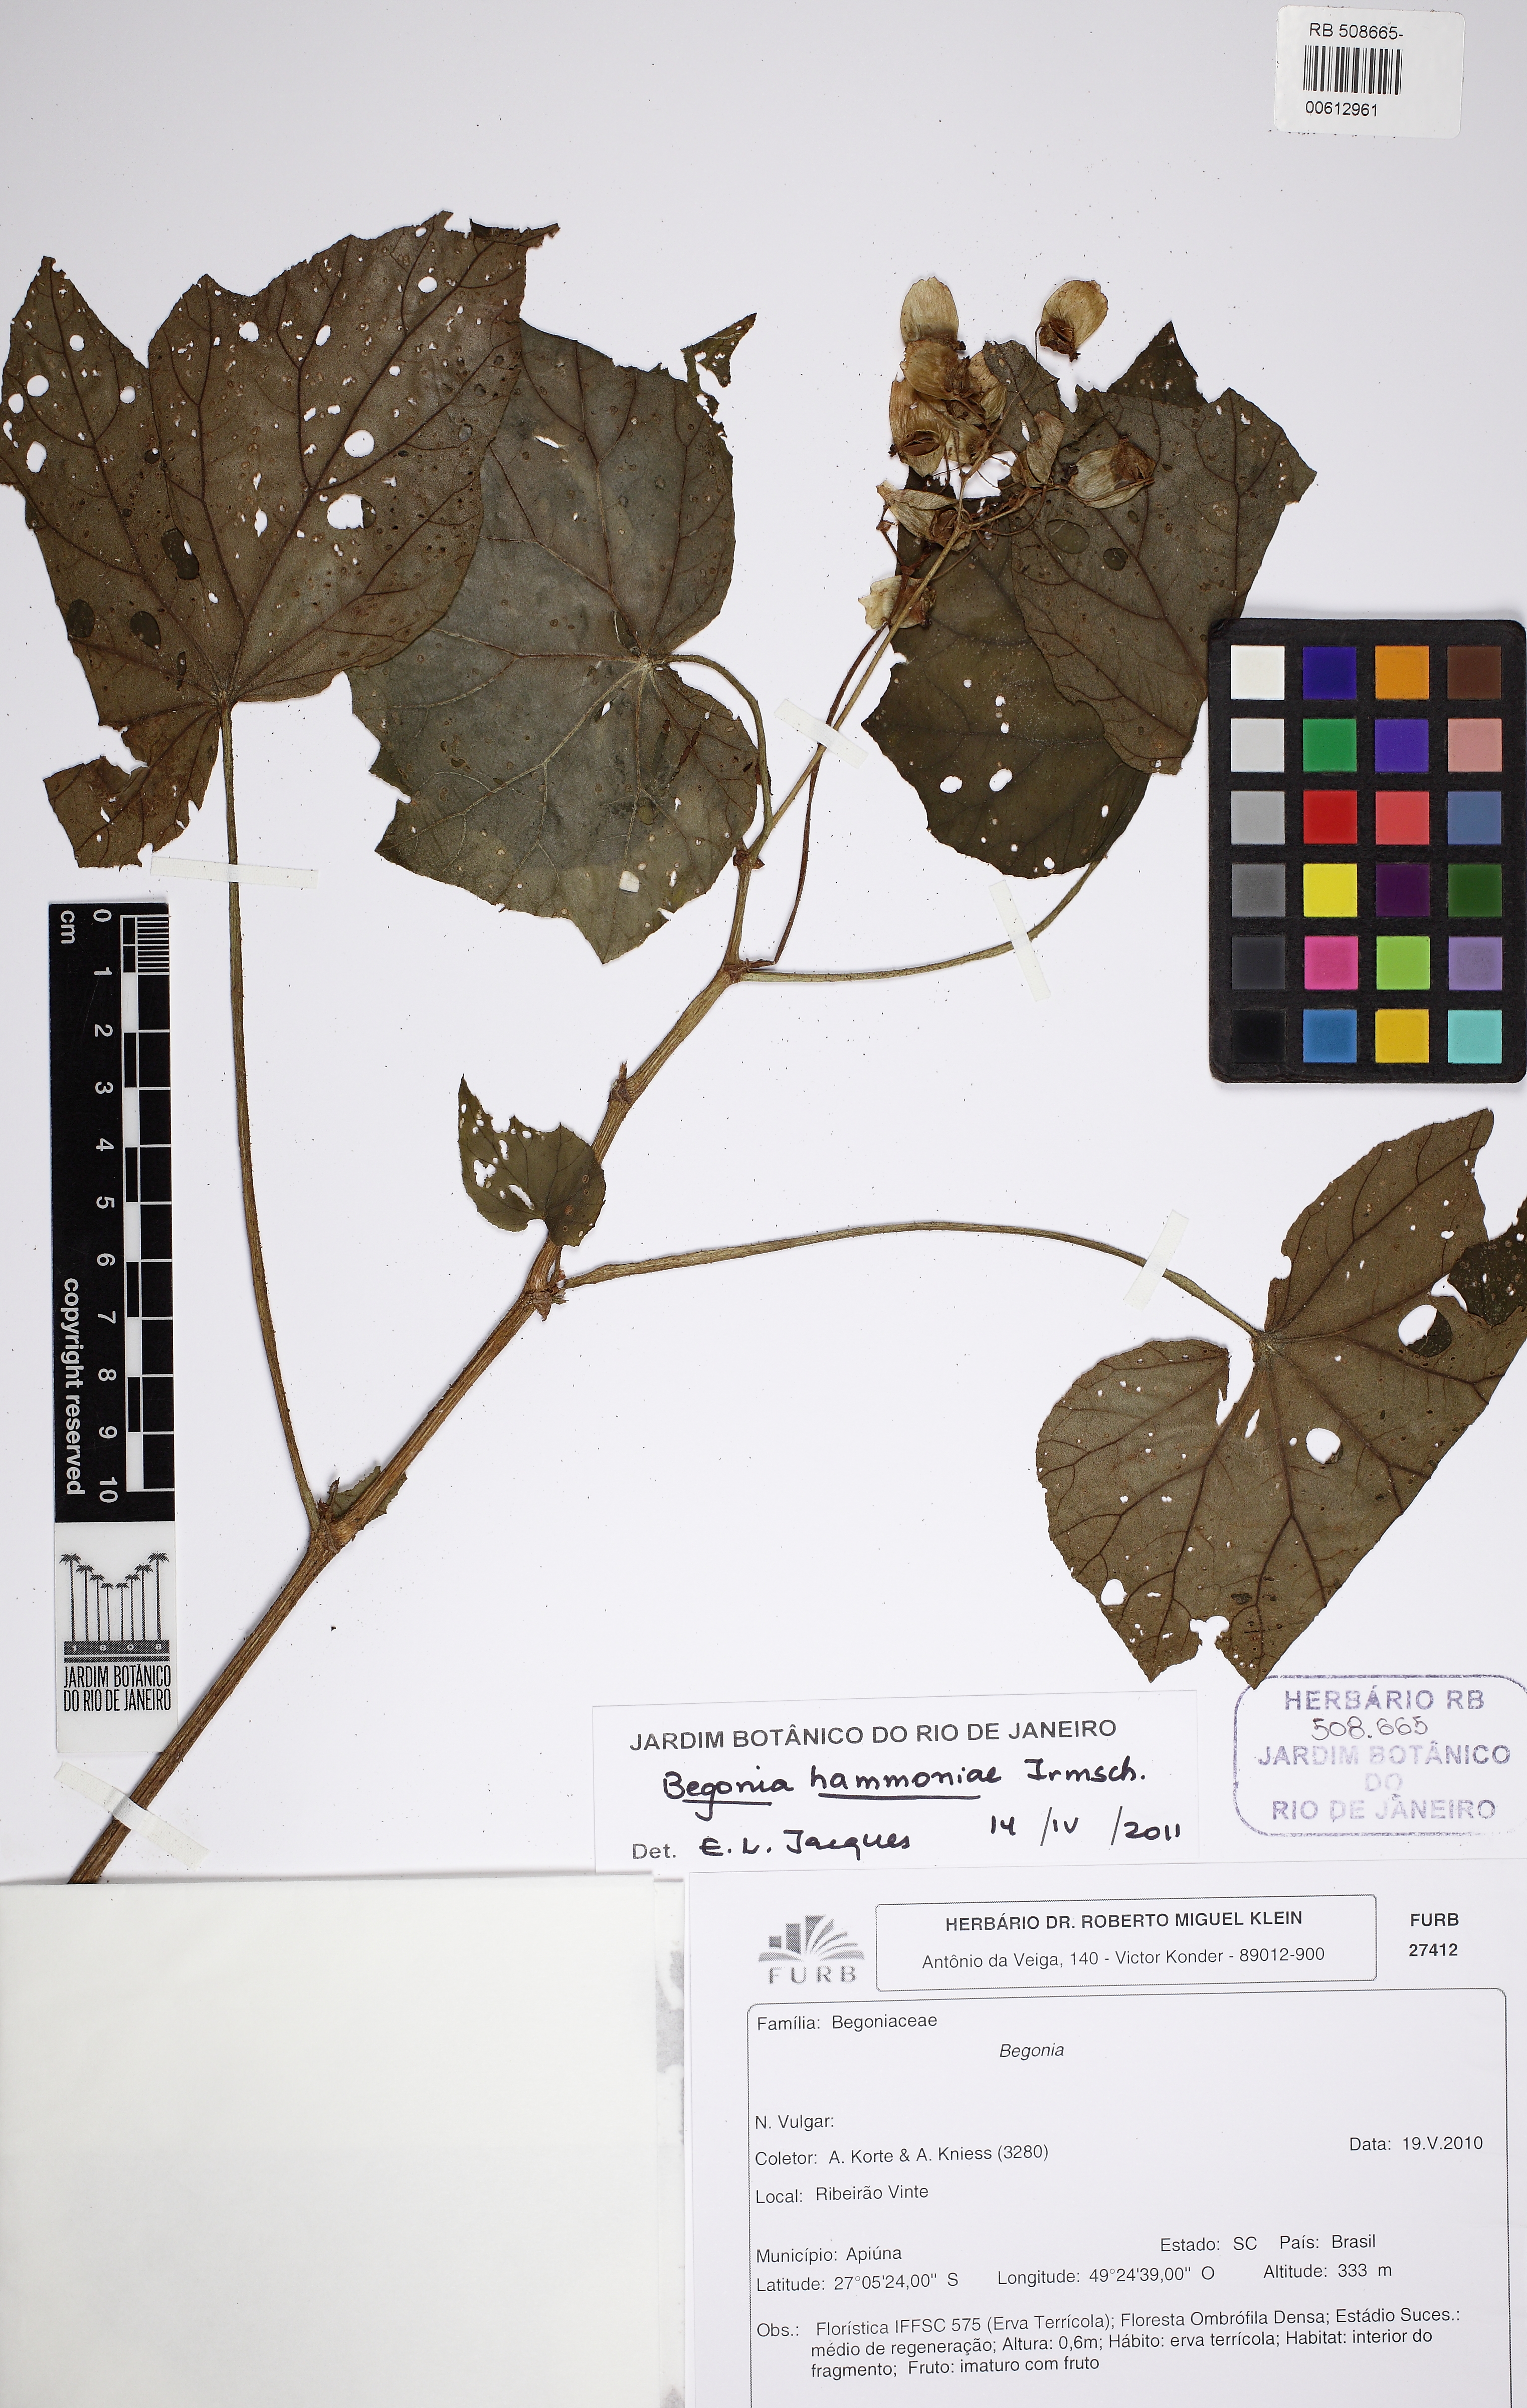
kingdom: Plantae
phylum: Tracheophyta
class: Magnoliopsida
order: Cucurbitales
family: Begoniaceae
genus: Begonia
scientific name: Begonia hammoniae
